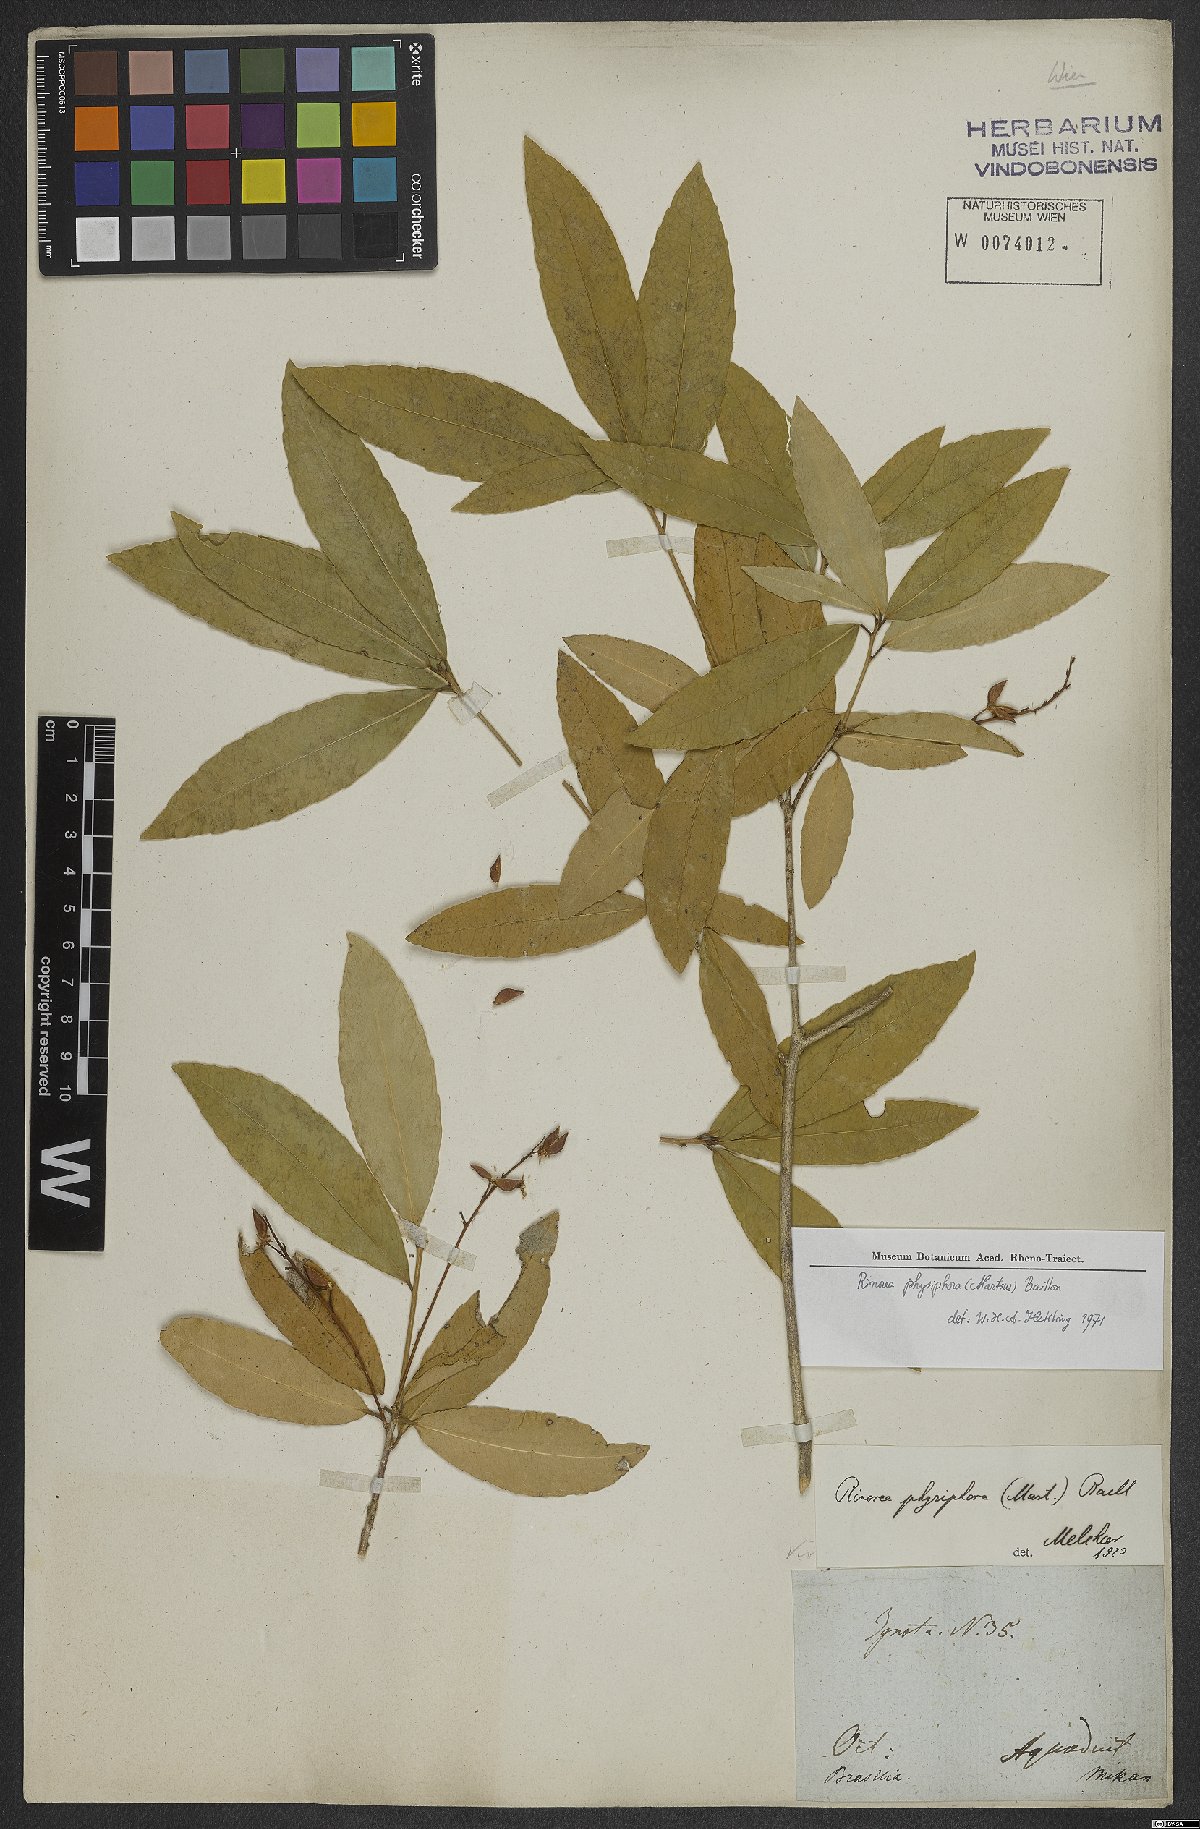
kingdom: Plantae
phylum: Tracheophyta
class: Magnoliopsida
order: Malpighiales
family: Violaceae
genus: Rinorea
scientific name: Rinorea laevigata
